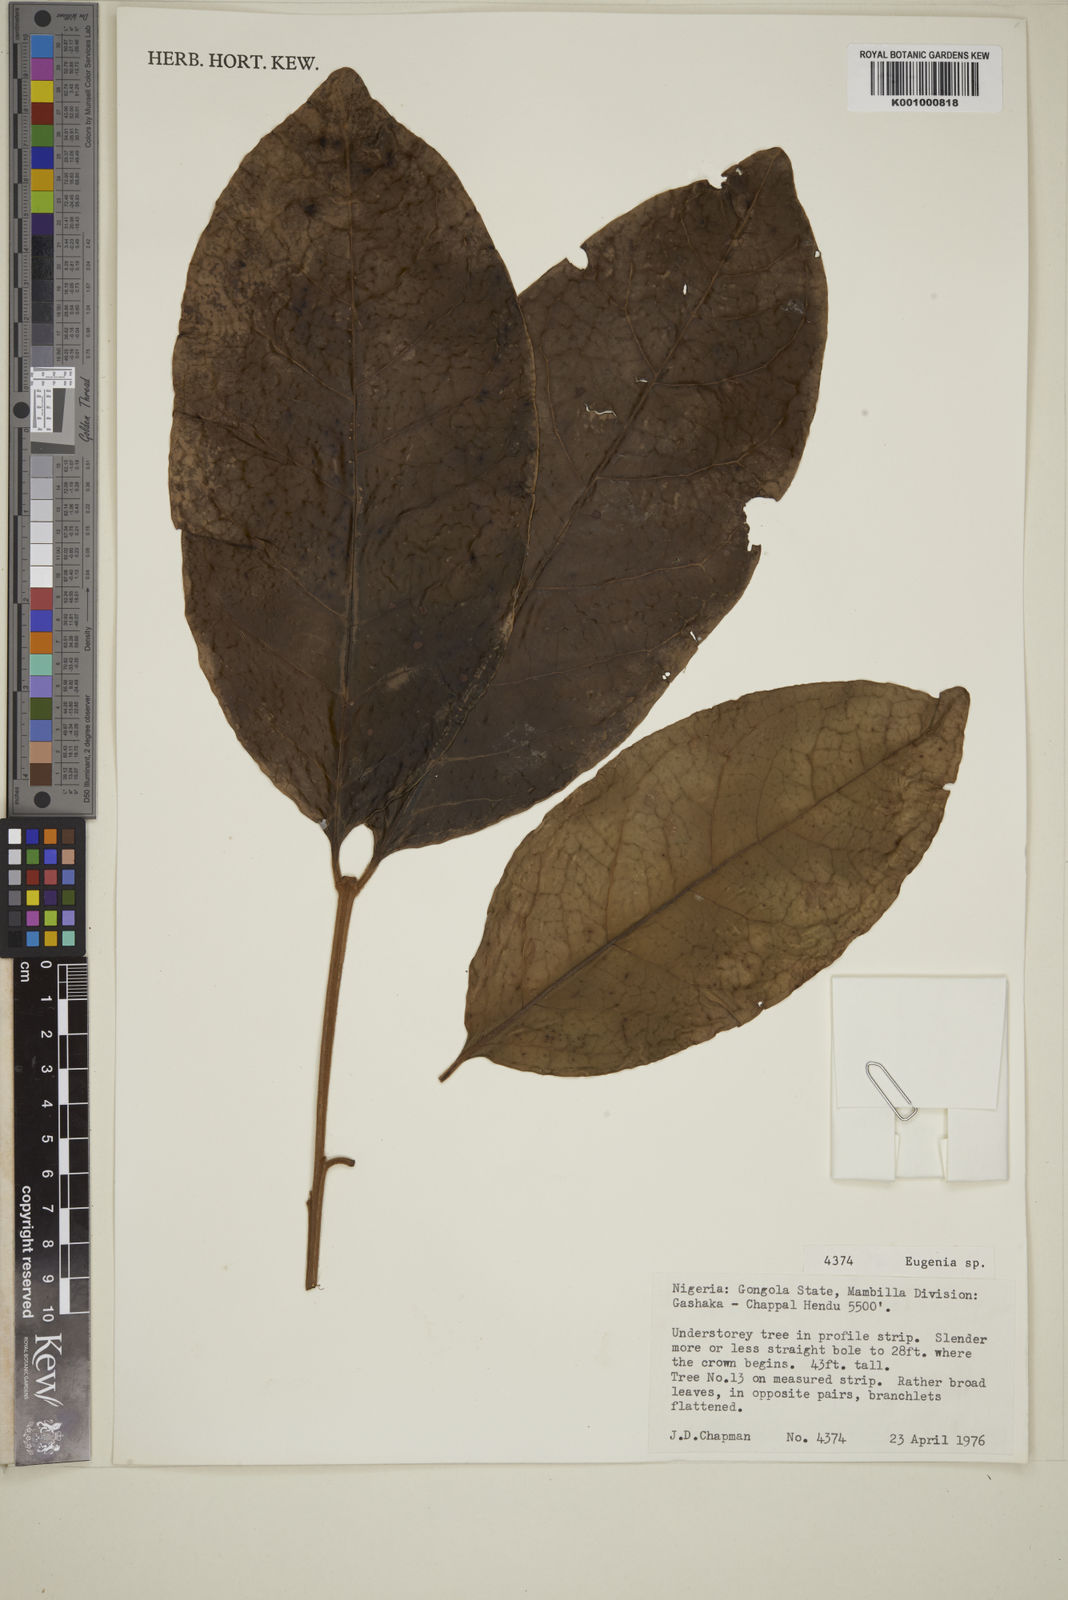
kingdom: Plantae
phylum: Tracheophyta
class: Magnoliopsida
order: Myrtales
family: Myrtaceae
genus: Eugenia
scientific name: Eugenia
